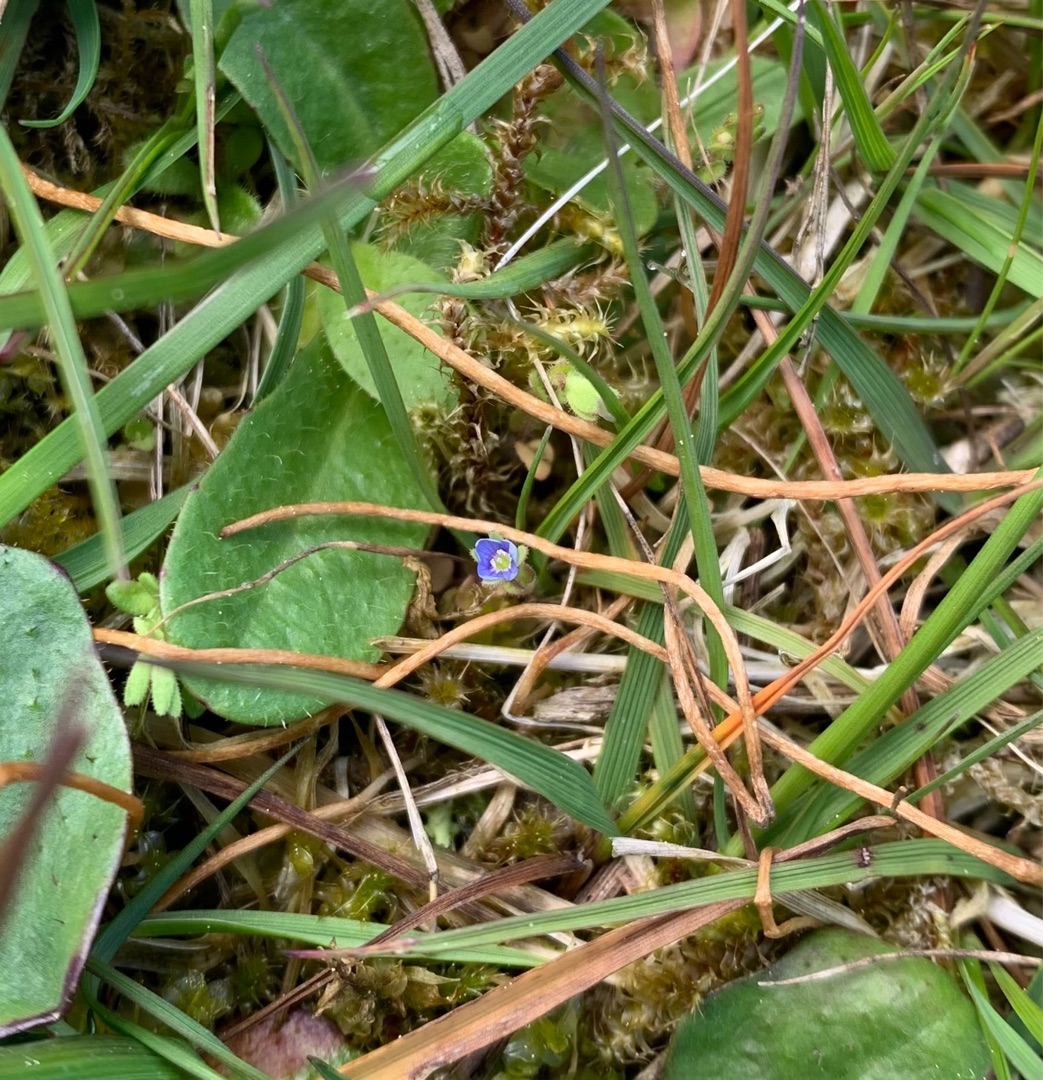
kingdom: Plantae
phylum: Tracheophyta
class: Magnoliopsida
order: Lamiales
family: Plantaginaceae
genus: Veronica
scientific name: Veronica serpyllifolia
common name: Glat ærenpris
